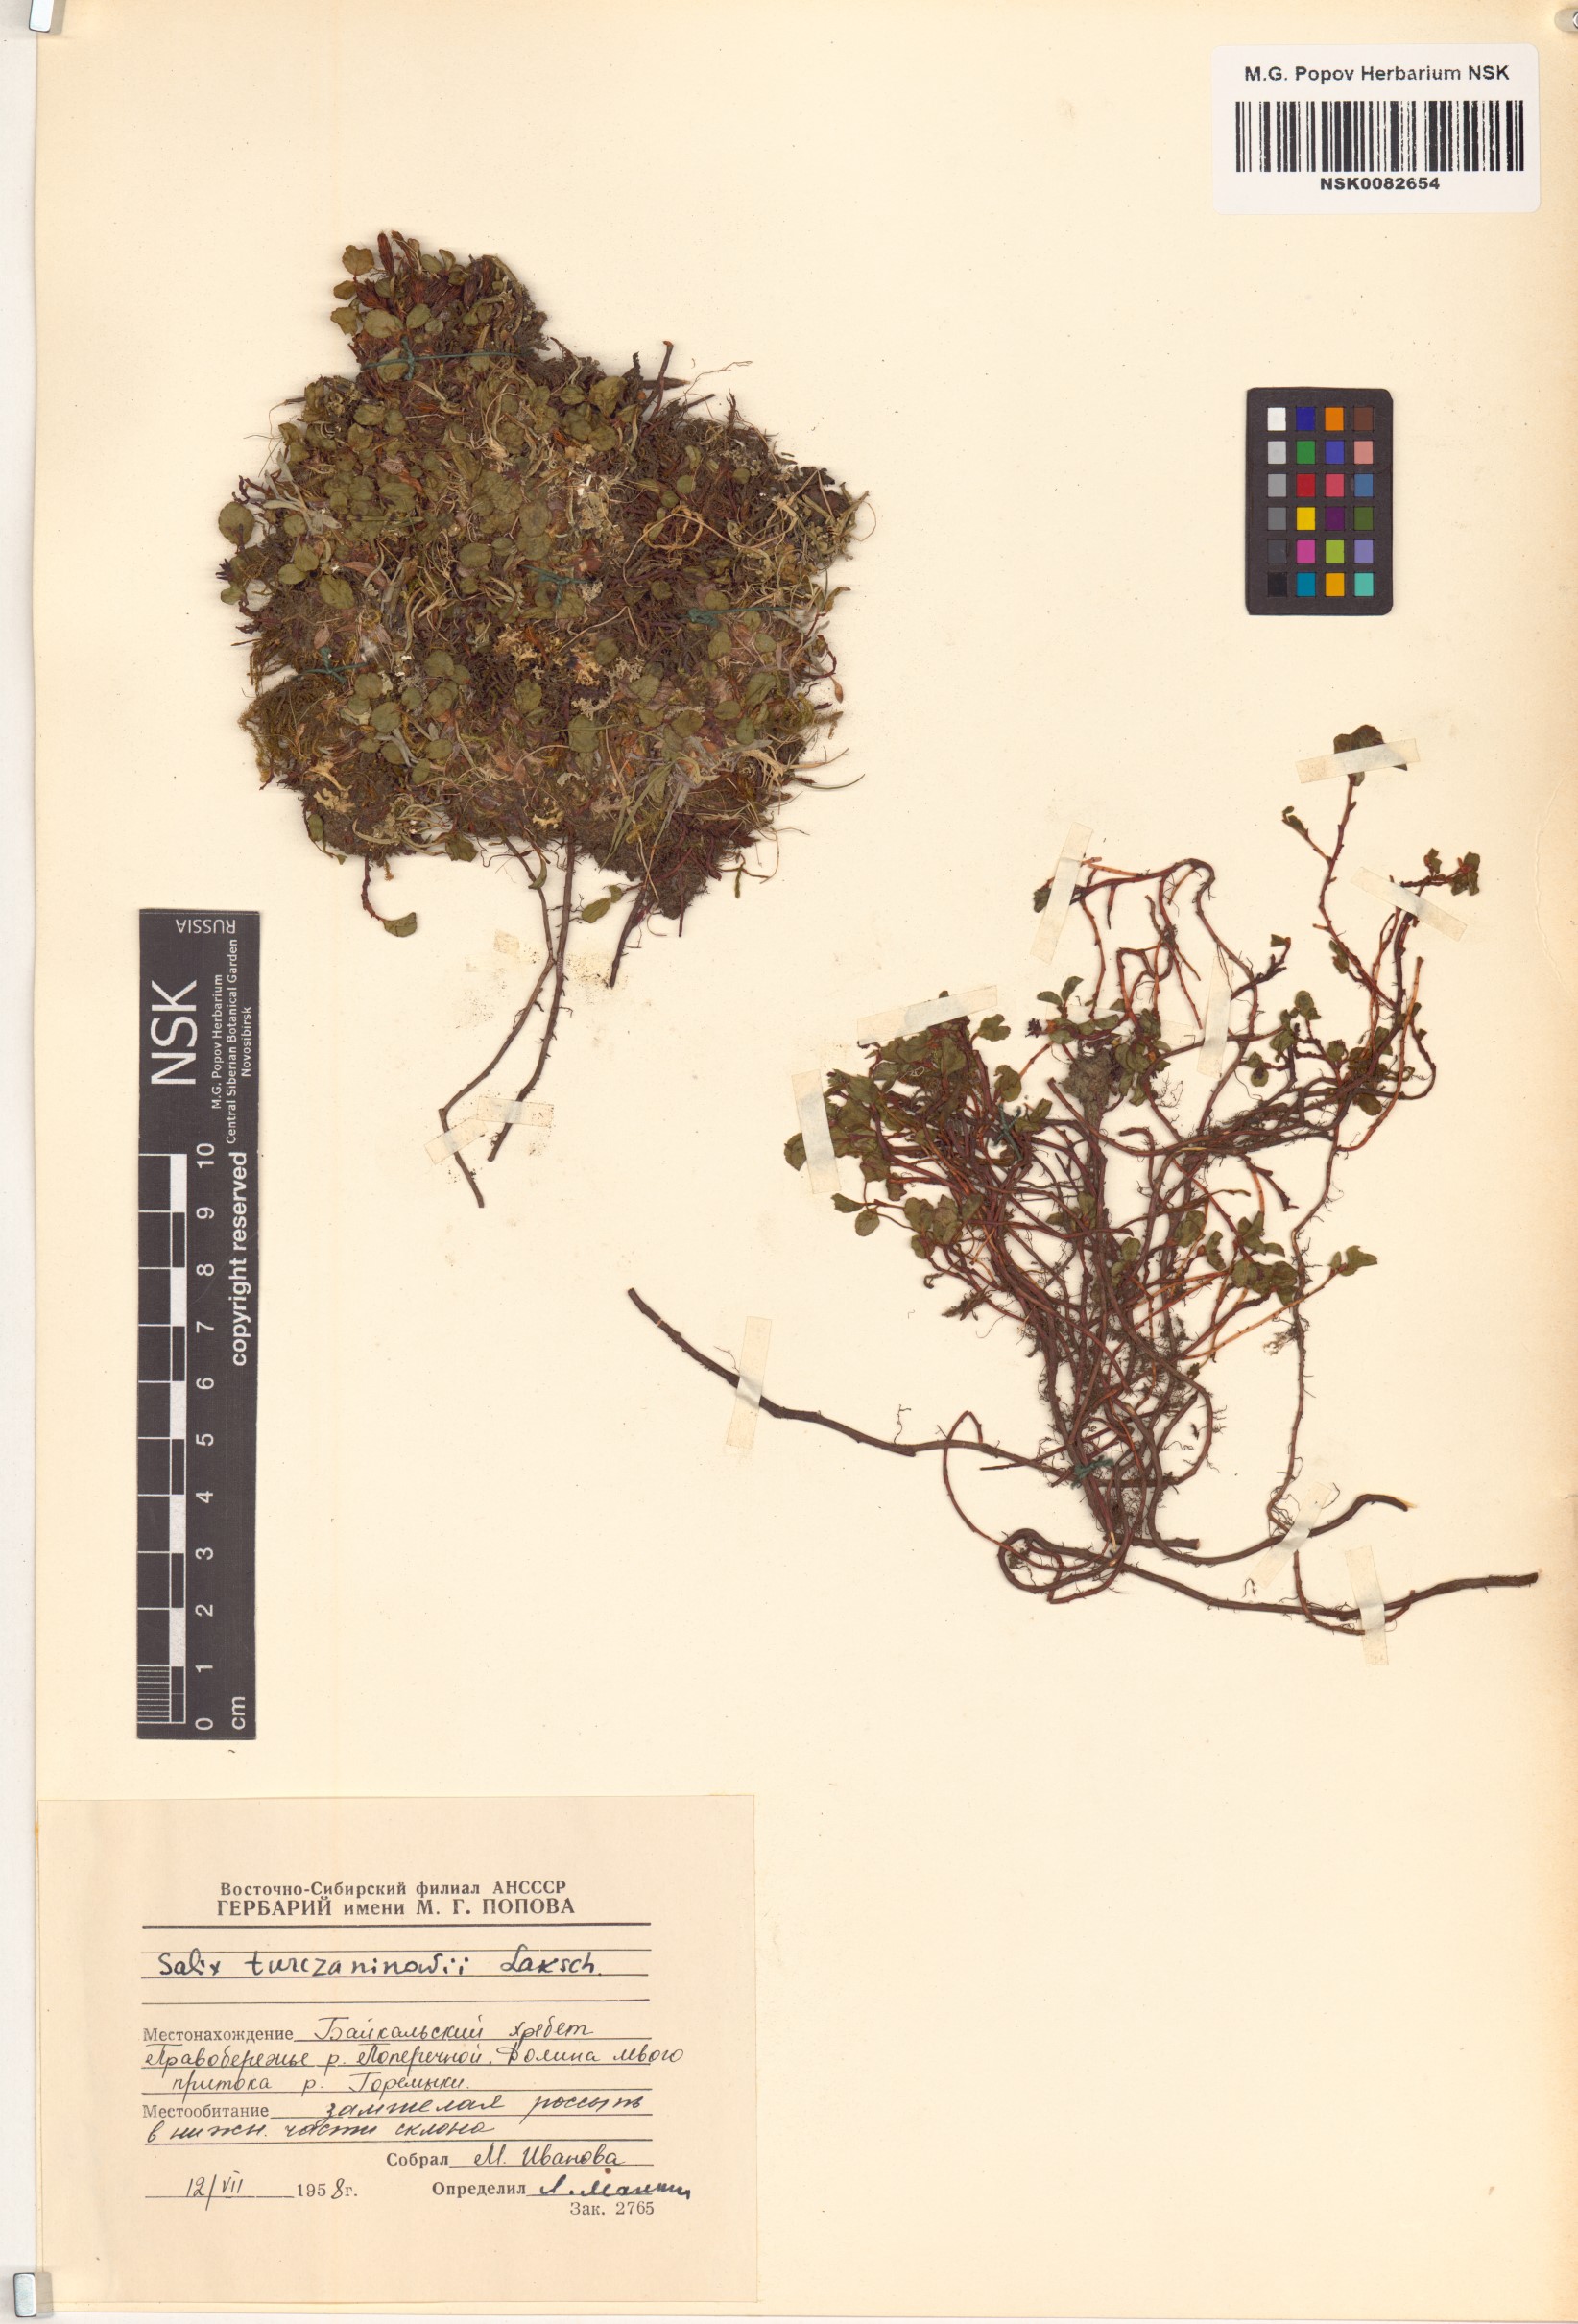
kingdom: Plantae
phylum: Tracheophyta
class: Magnoliopsida
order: Malpighiales
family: Salicaceae
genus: Salix
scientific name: Salix turczaninowii
